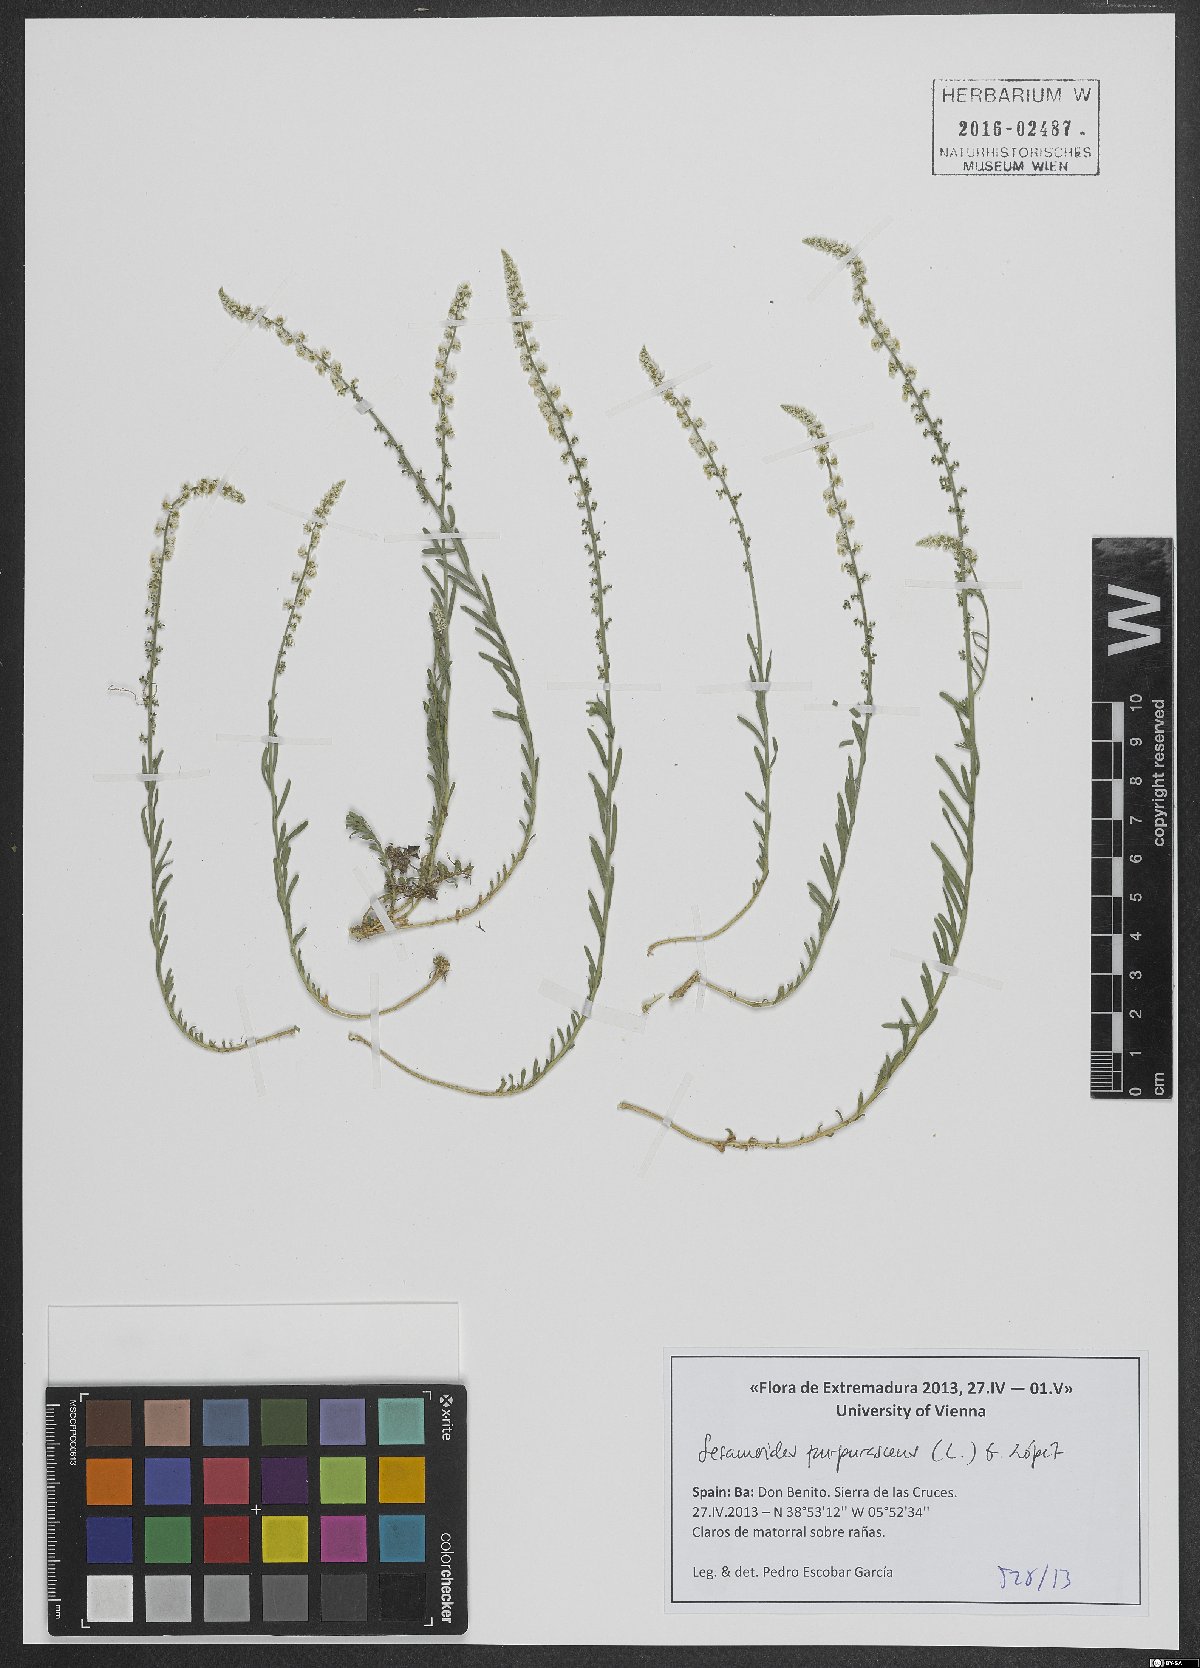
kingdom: Plantae
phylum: Tracheophyta
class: Magnoliopsida
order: Brassicales
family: Resedaceae
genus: Sesamoides
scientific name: Sesamoides purpurascens
